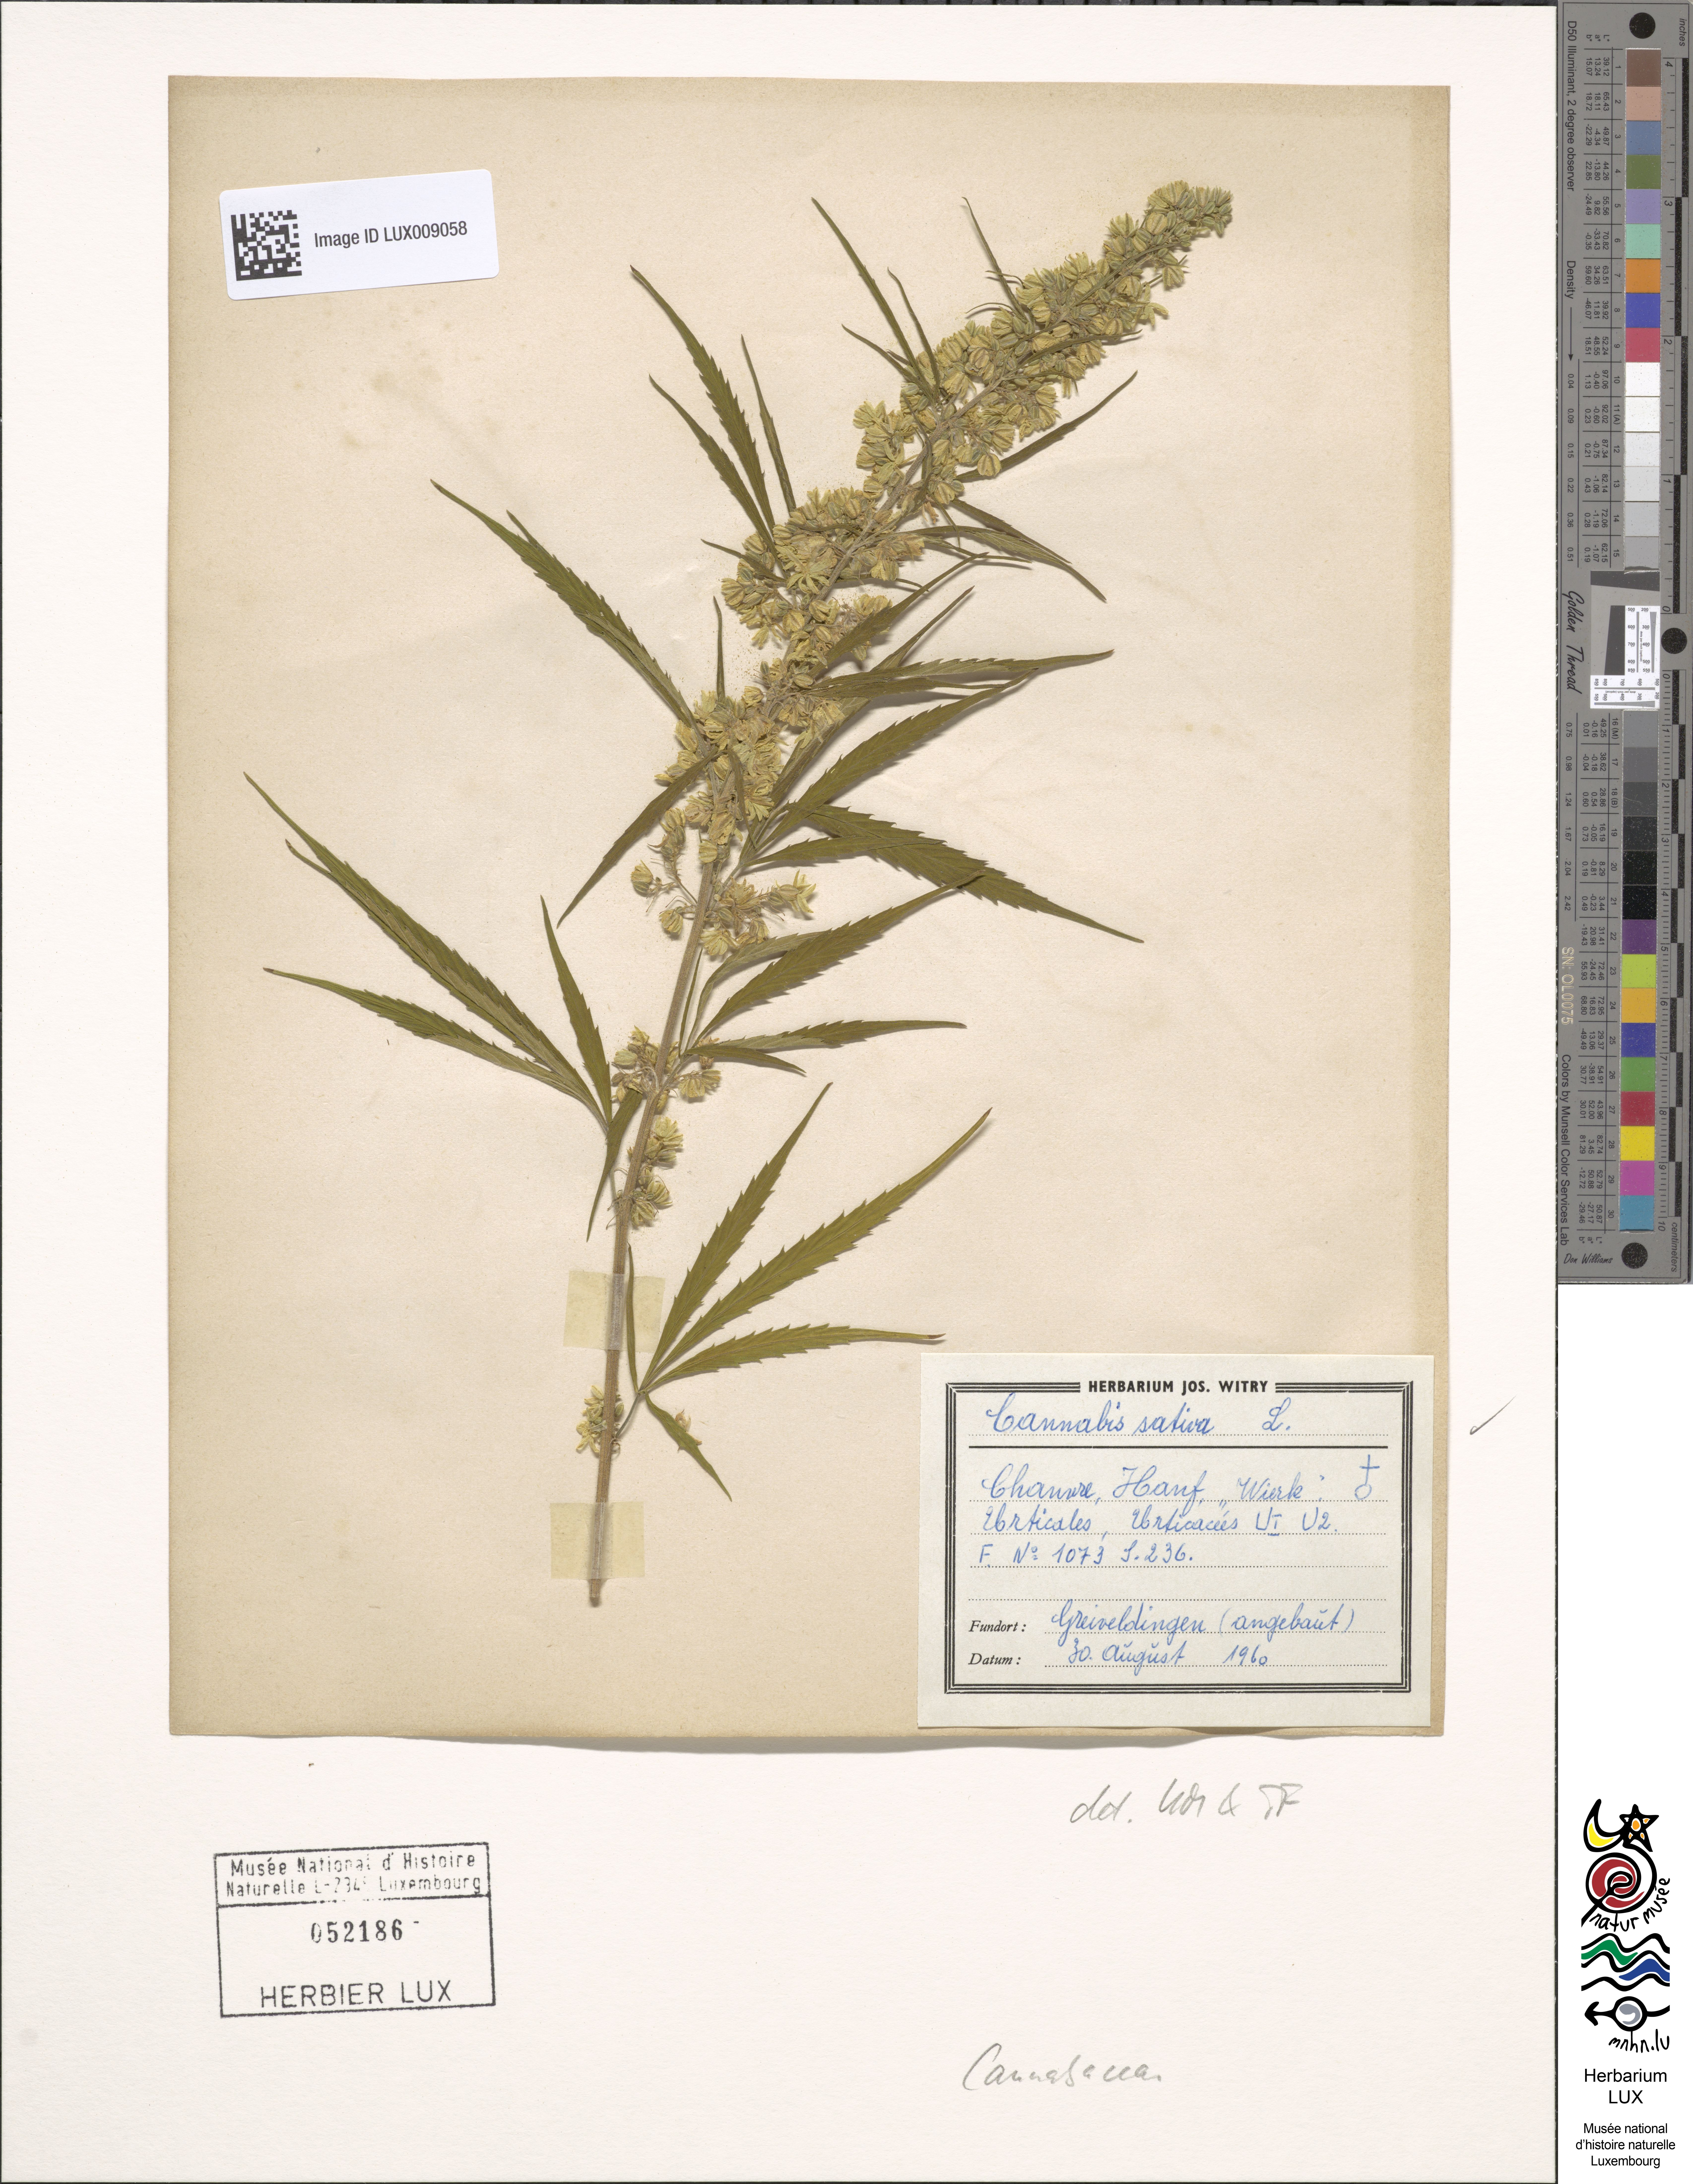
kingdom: Plantae
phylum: Tracheophyta
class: Magnoliopsida
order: Rosales
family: Cannabaceae
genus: Cannabis
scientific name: Cannabis sativa
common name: Hemp
